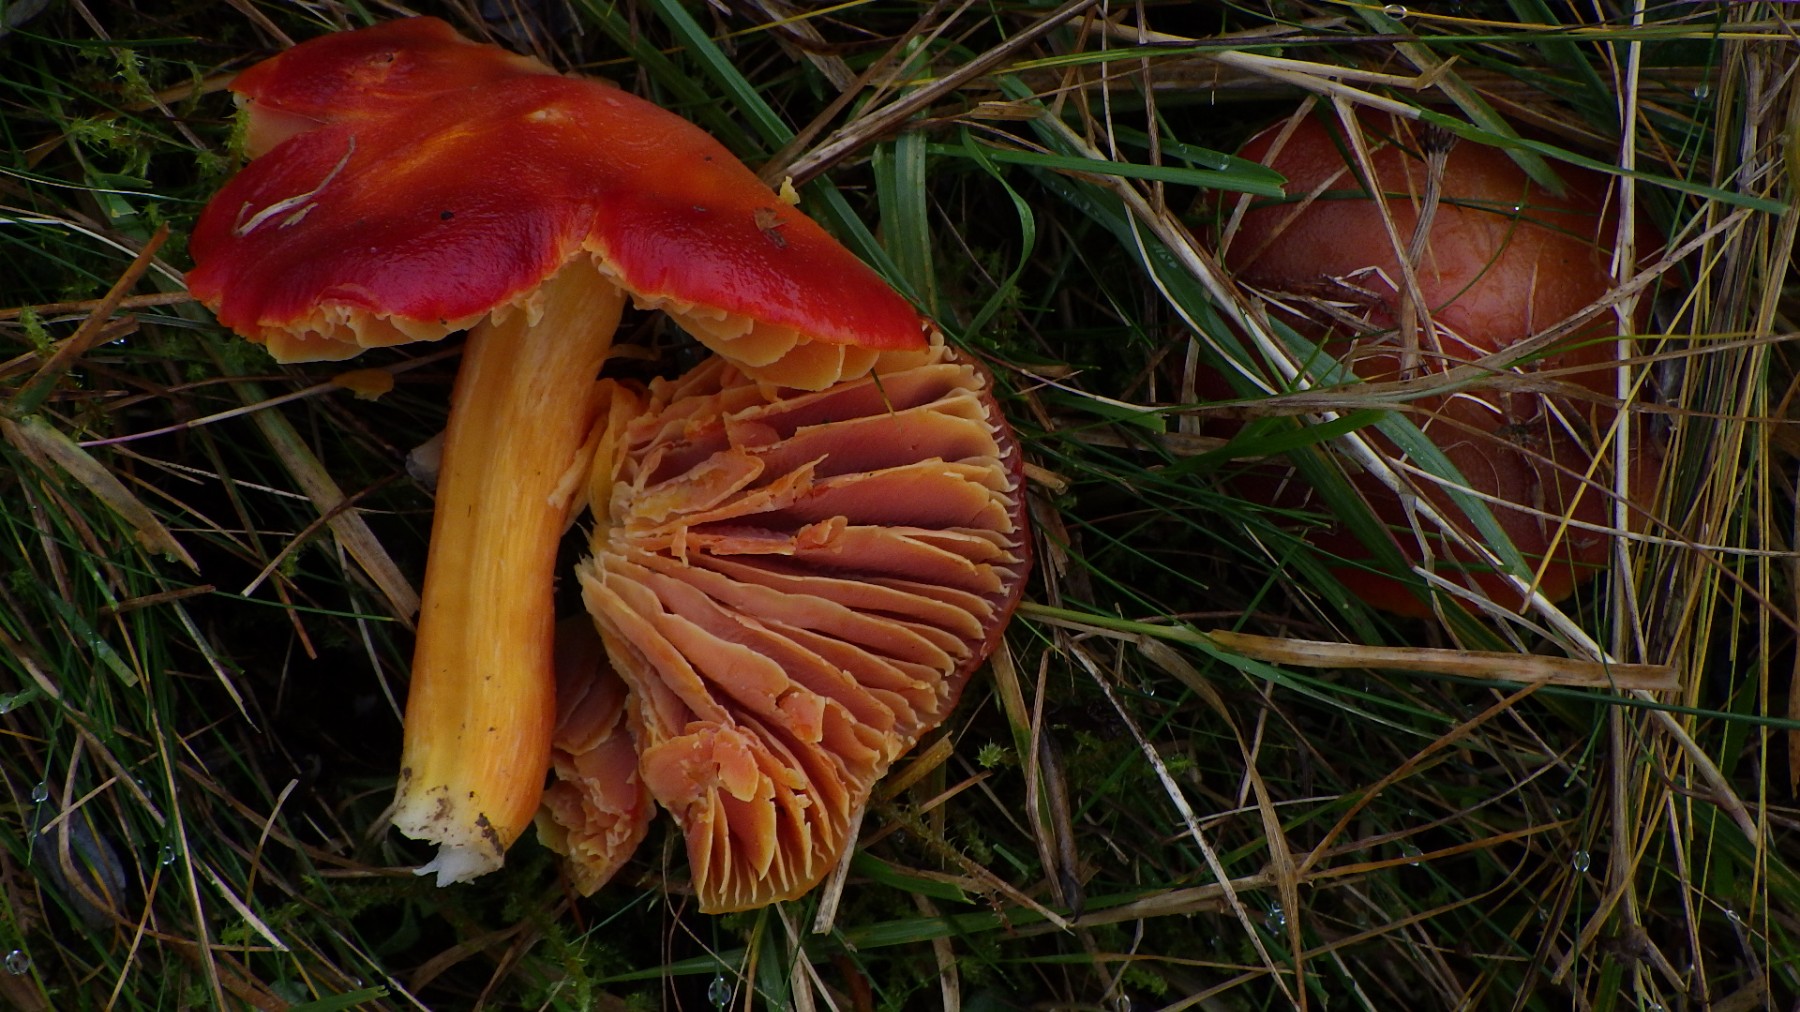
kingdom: Fungi
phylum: Basidiomycota
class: Agaricomycetes
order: Agaricales
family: Hygrophoraceae
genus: Hygrocybe
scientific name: Hygrocybe punicea
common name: skarlagen-vokshat
